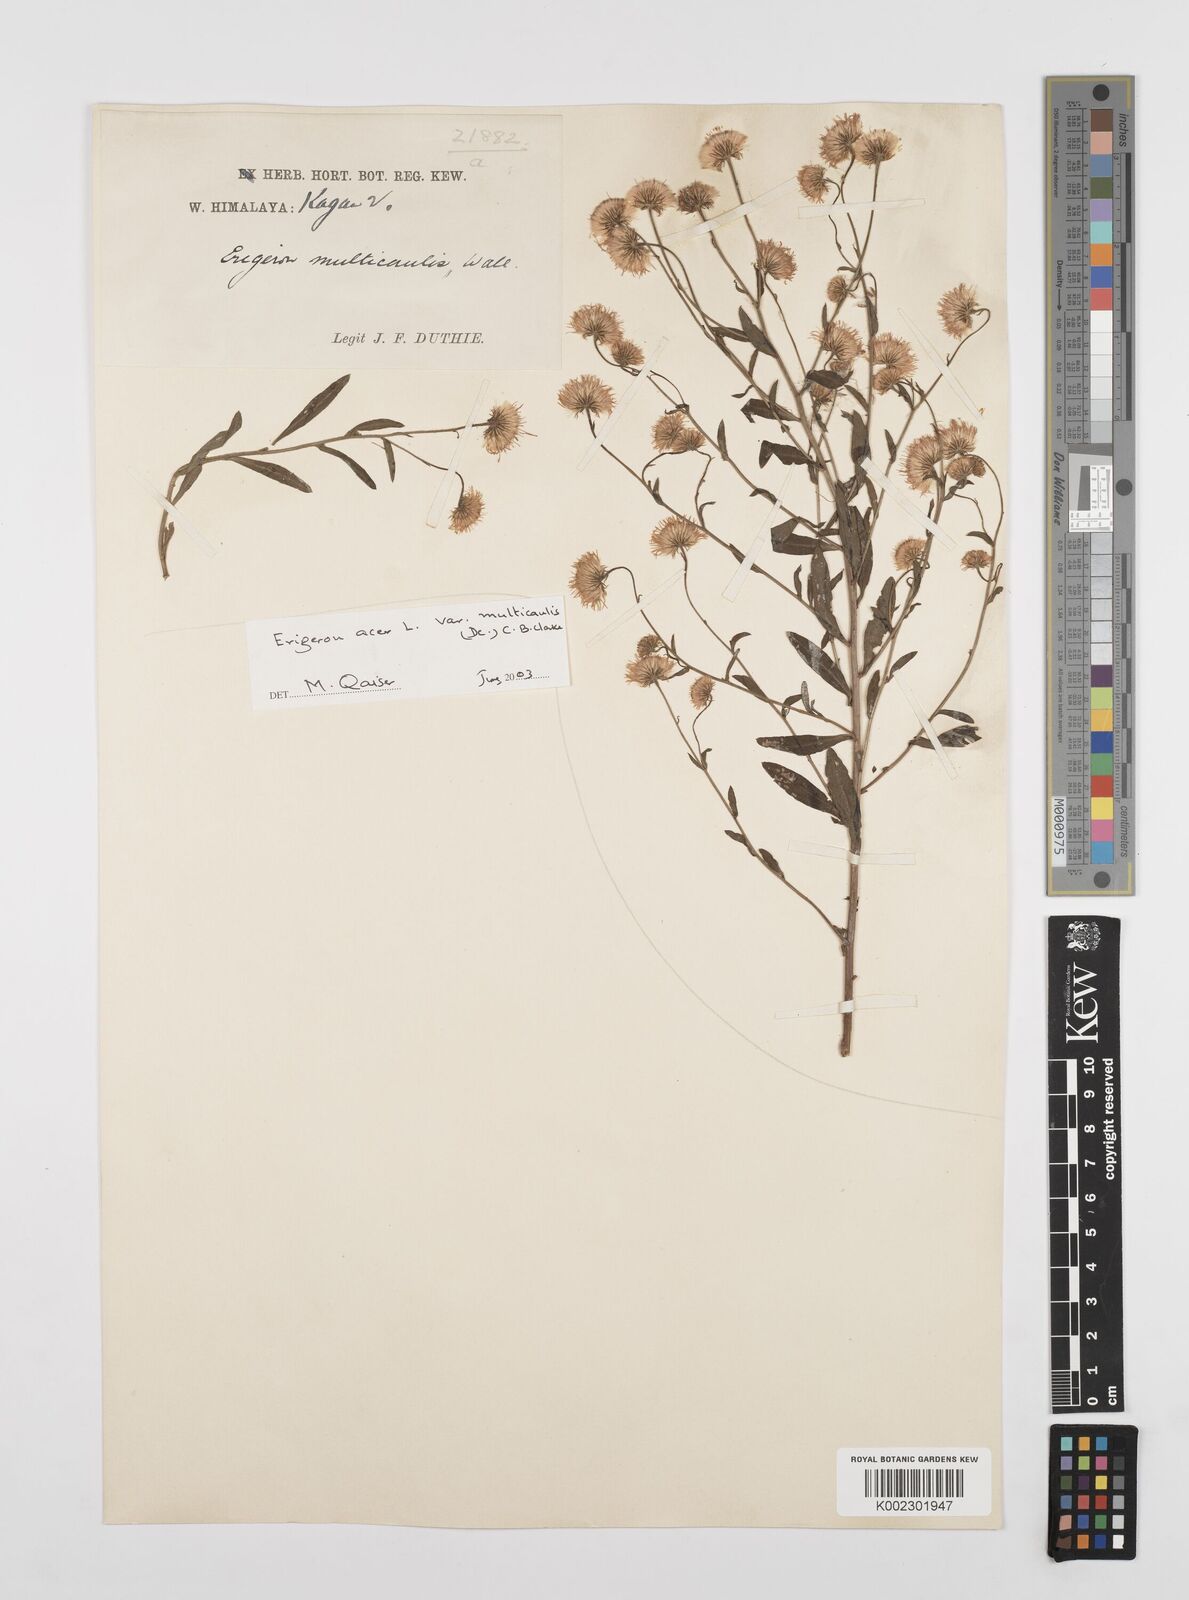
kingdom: Plantae
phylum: Tracheophyta
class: Magnoliopsida
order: Asterales
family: Asteraceae
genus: Erigeron
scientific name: Erigeron alpinus
